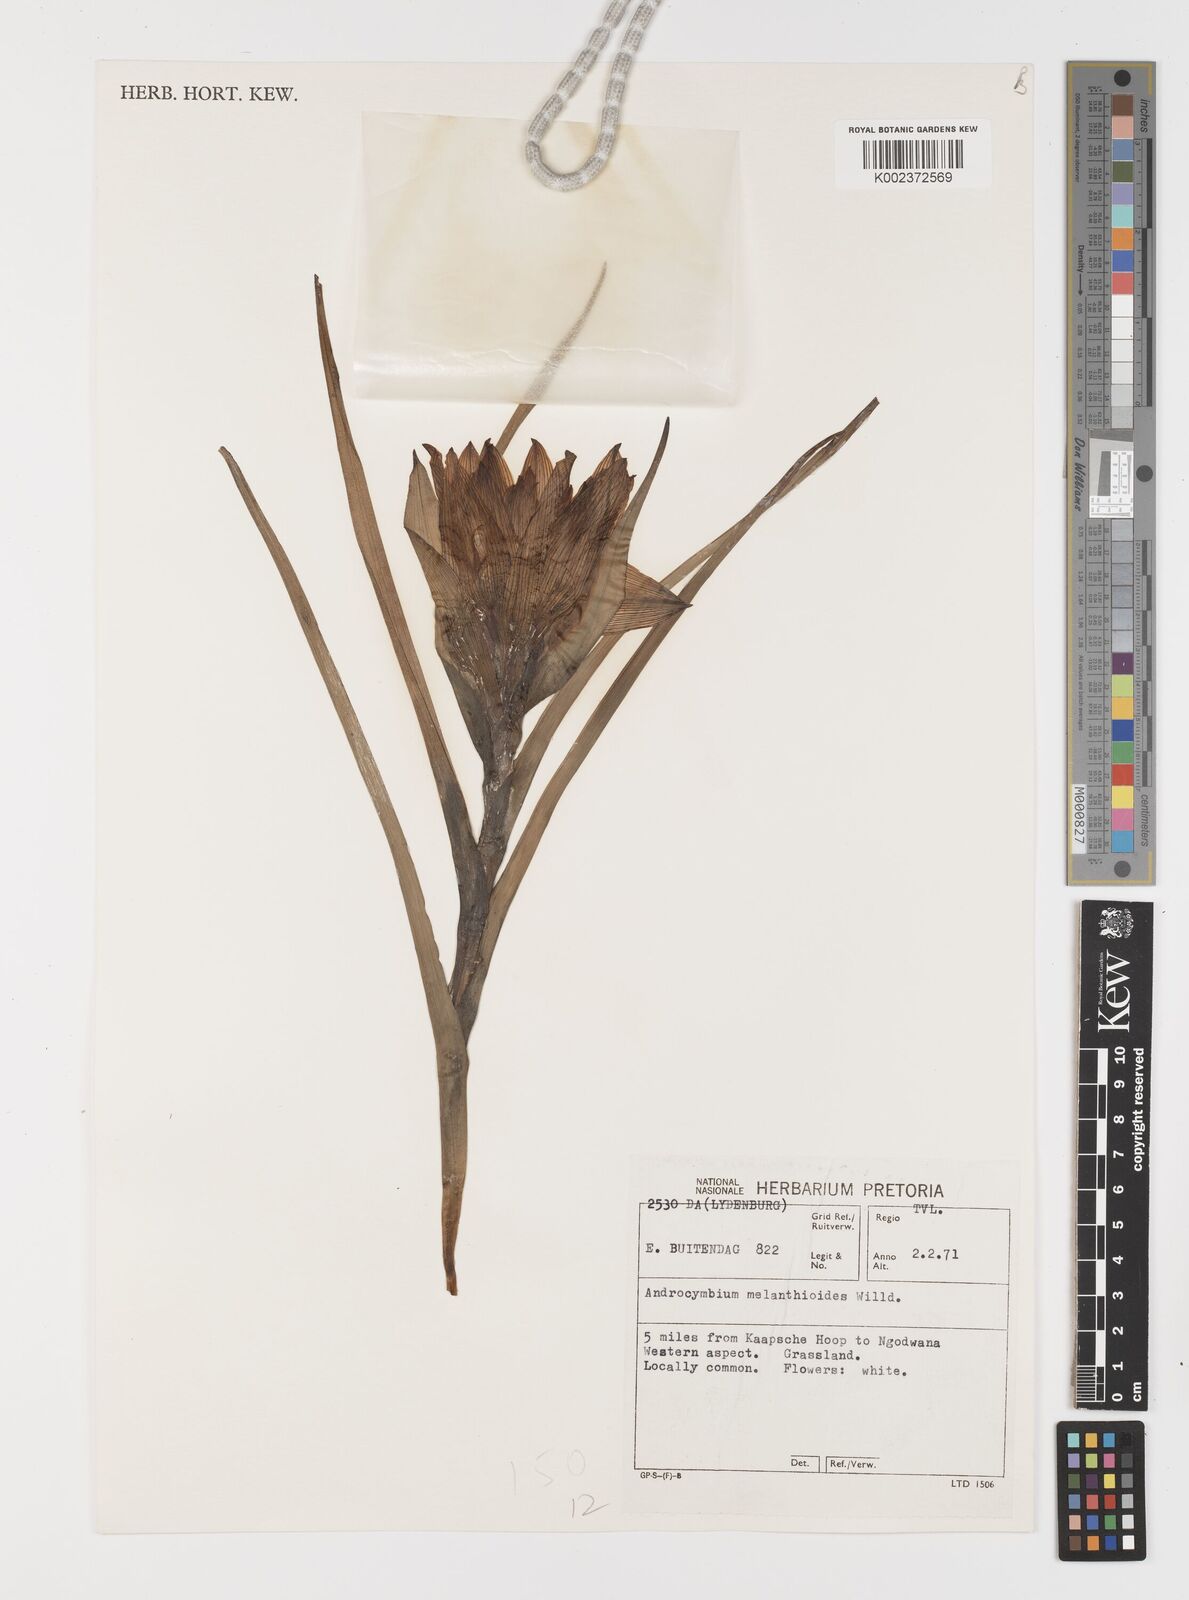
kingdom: Plantae
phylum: Tracheophyta
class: Liliopsida
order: Liliales
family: Colchicaceae
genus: Colchicum
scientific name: Colchicum melanthioides
